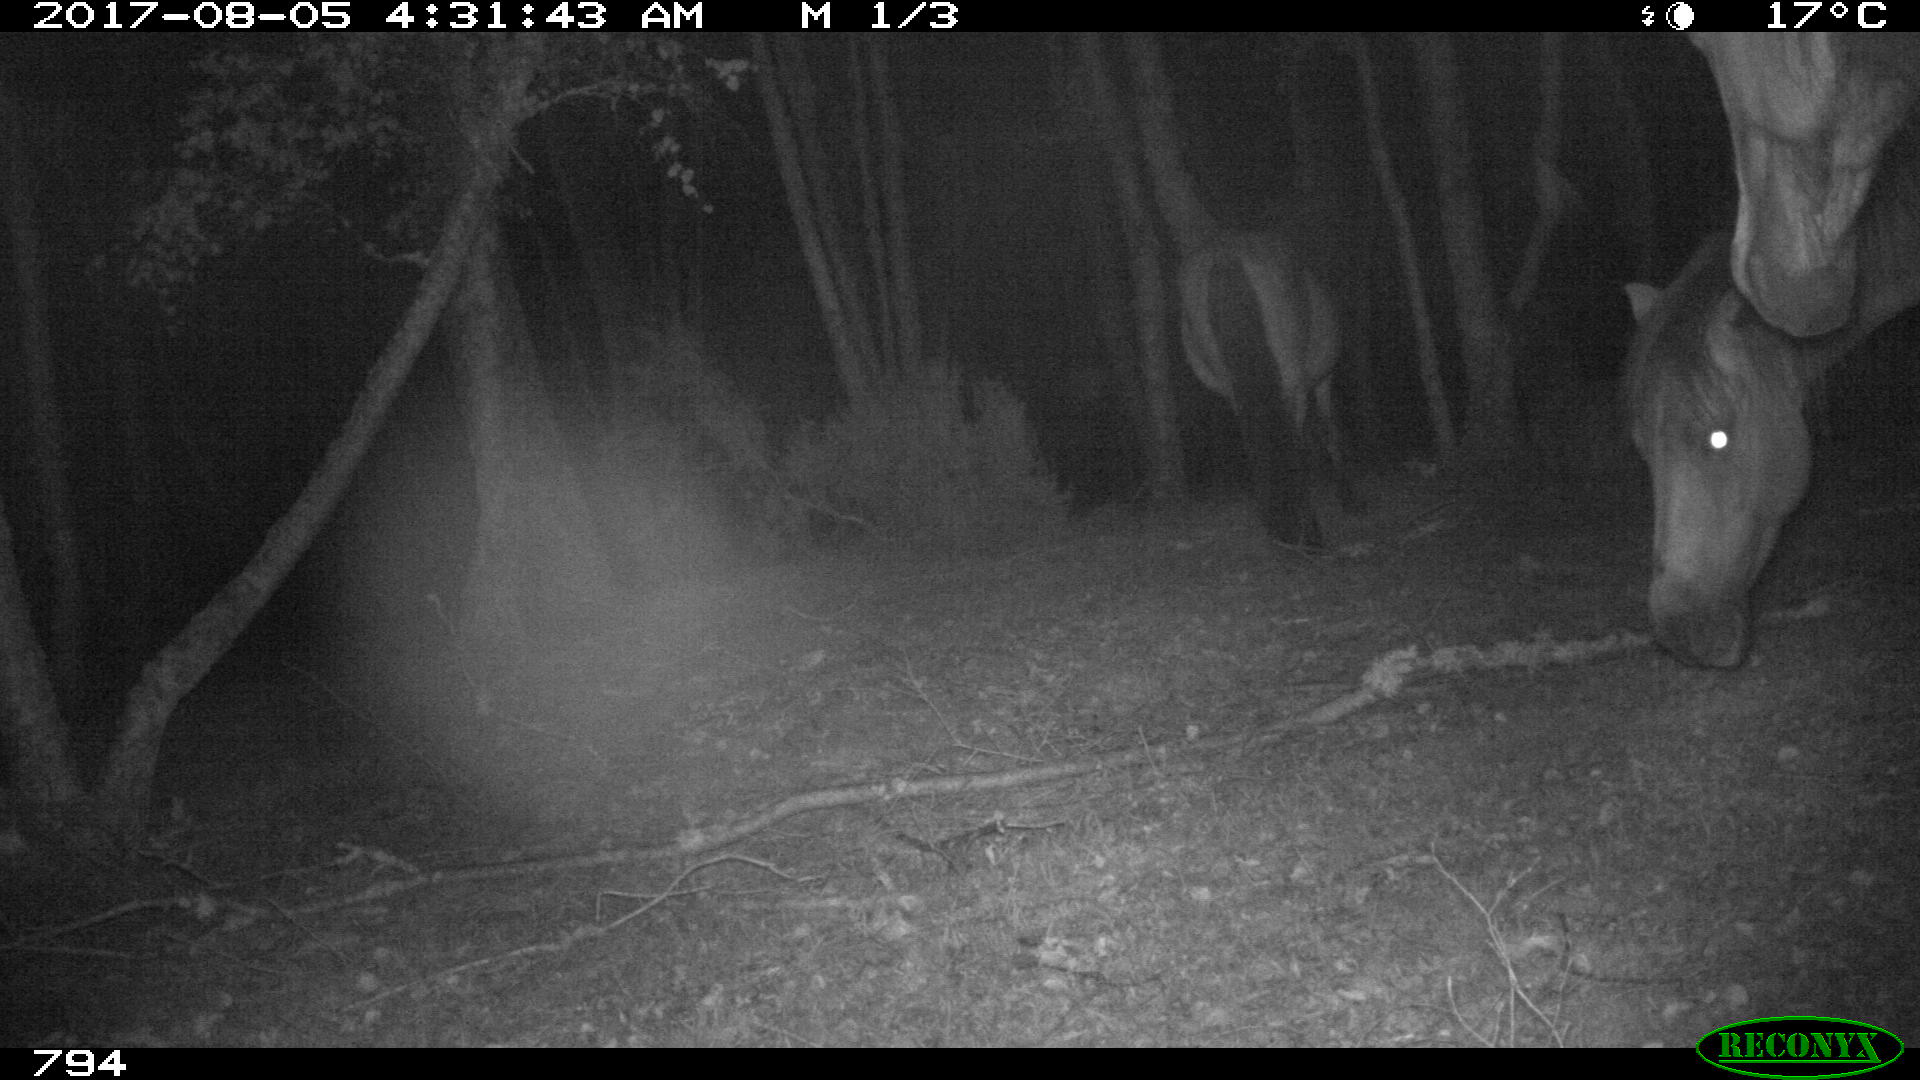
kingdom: Animalia
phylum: Chordata
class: Mammalia
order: Perissodactyla
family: Equidae
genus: Equus
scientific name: Equus caballus
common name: Horse
